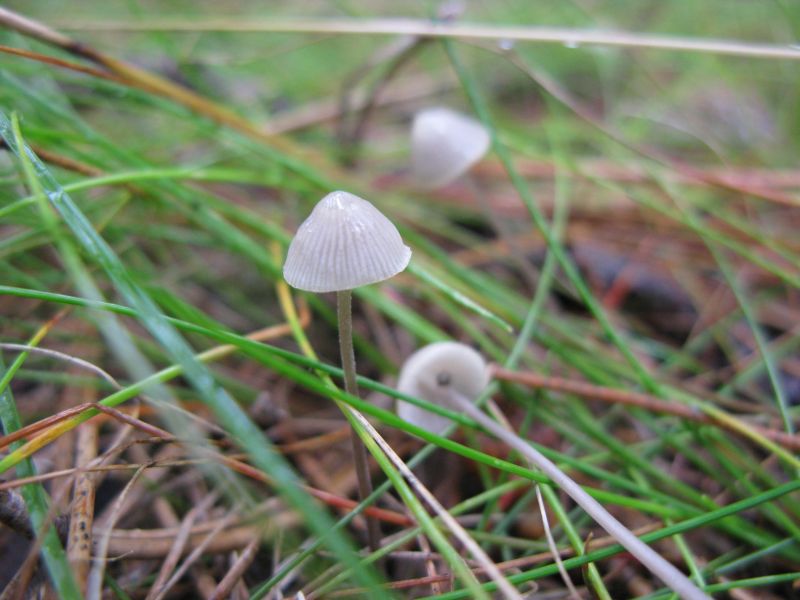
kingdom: Fungi
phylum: Basidiomycota
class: Agaricomycetes
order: Agaricales
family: Mycenaceae
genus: Mycena
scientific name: Mycena amicta
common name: iris-huesvamp
